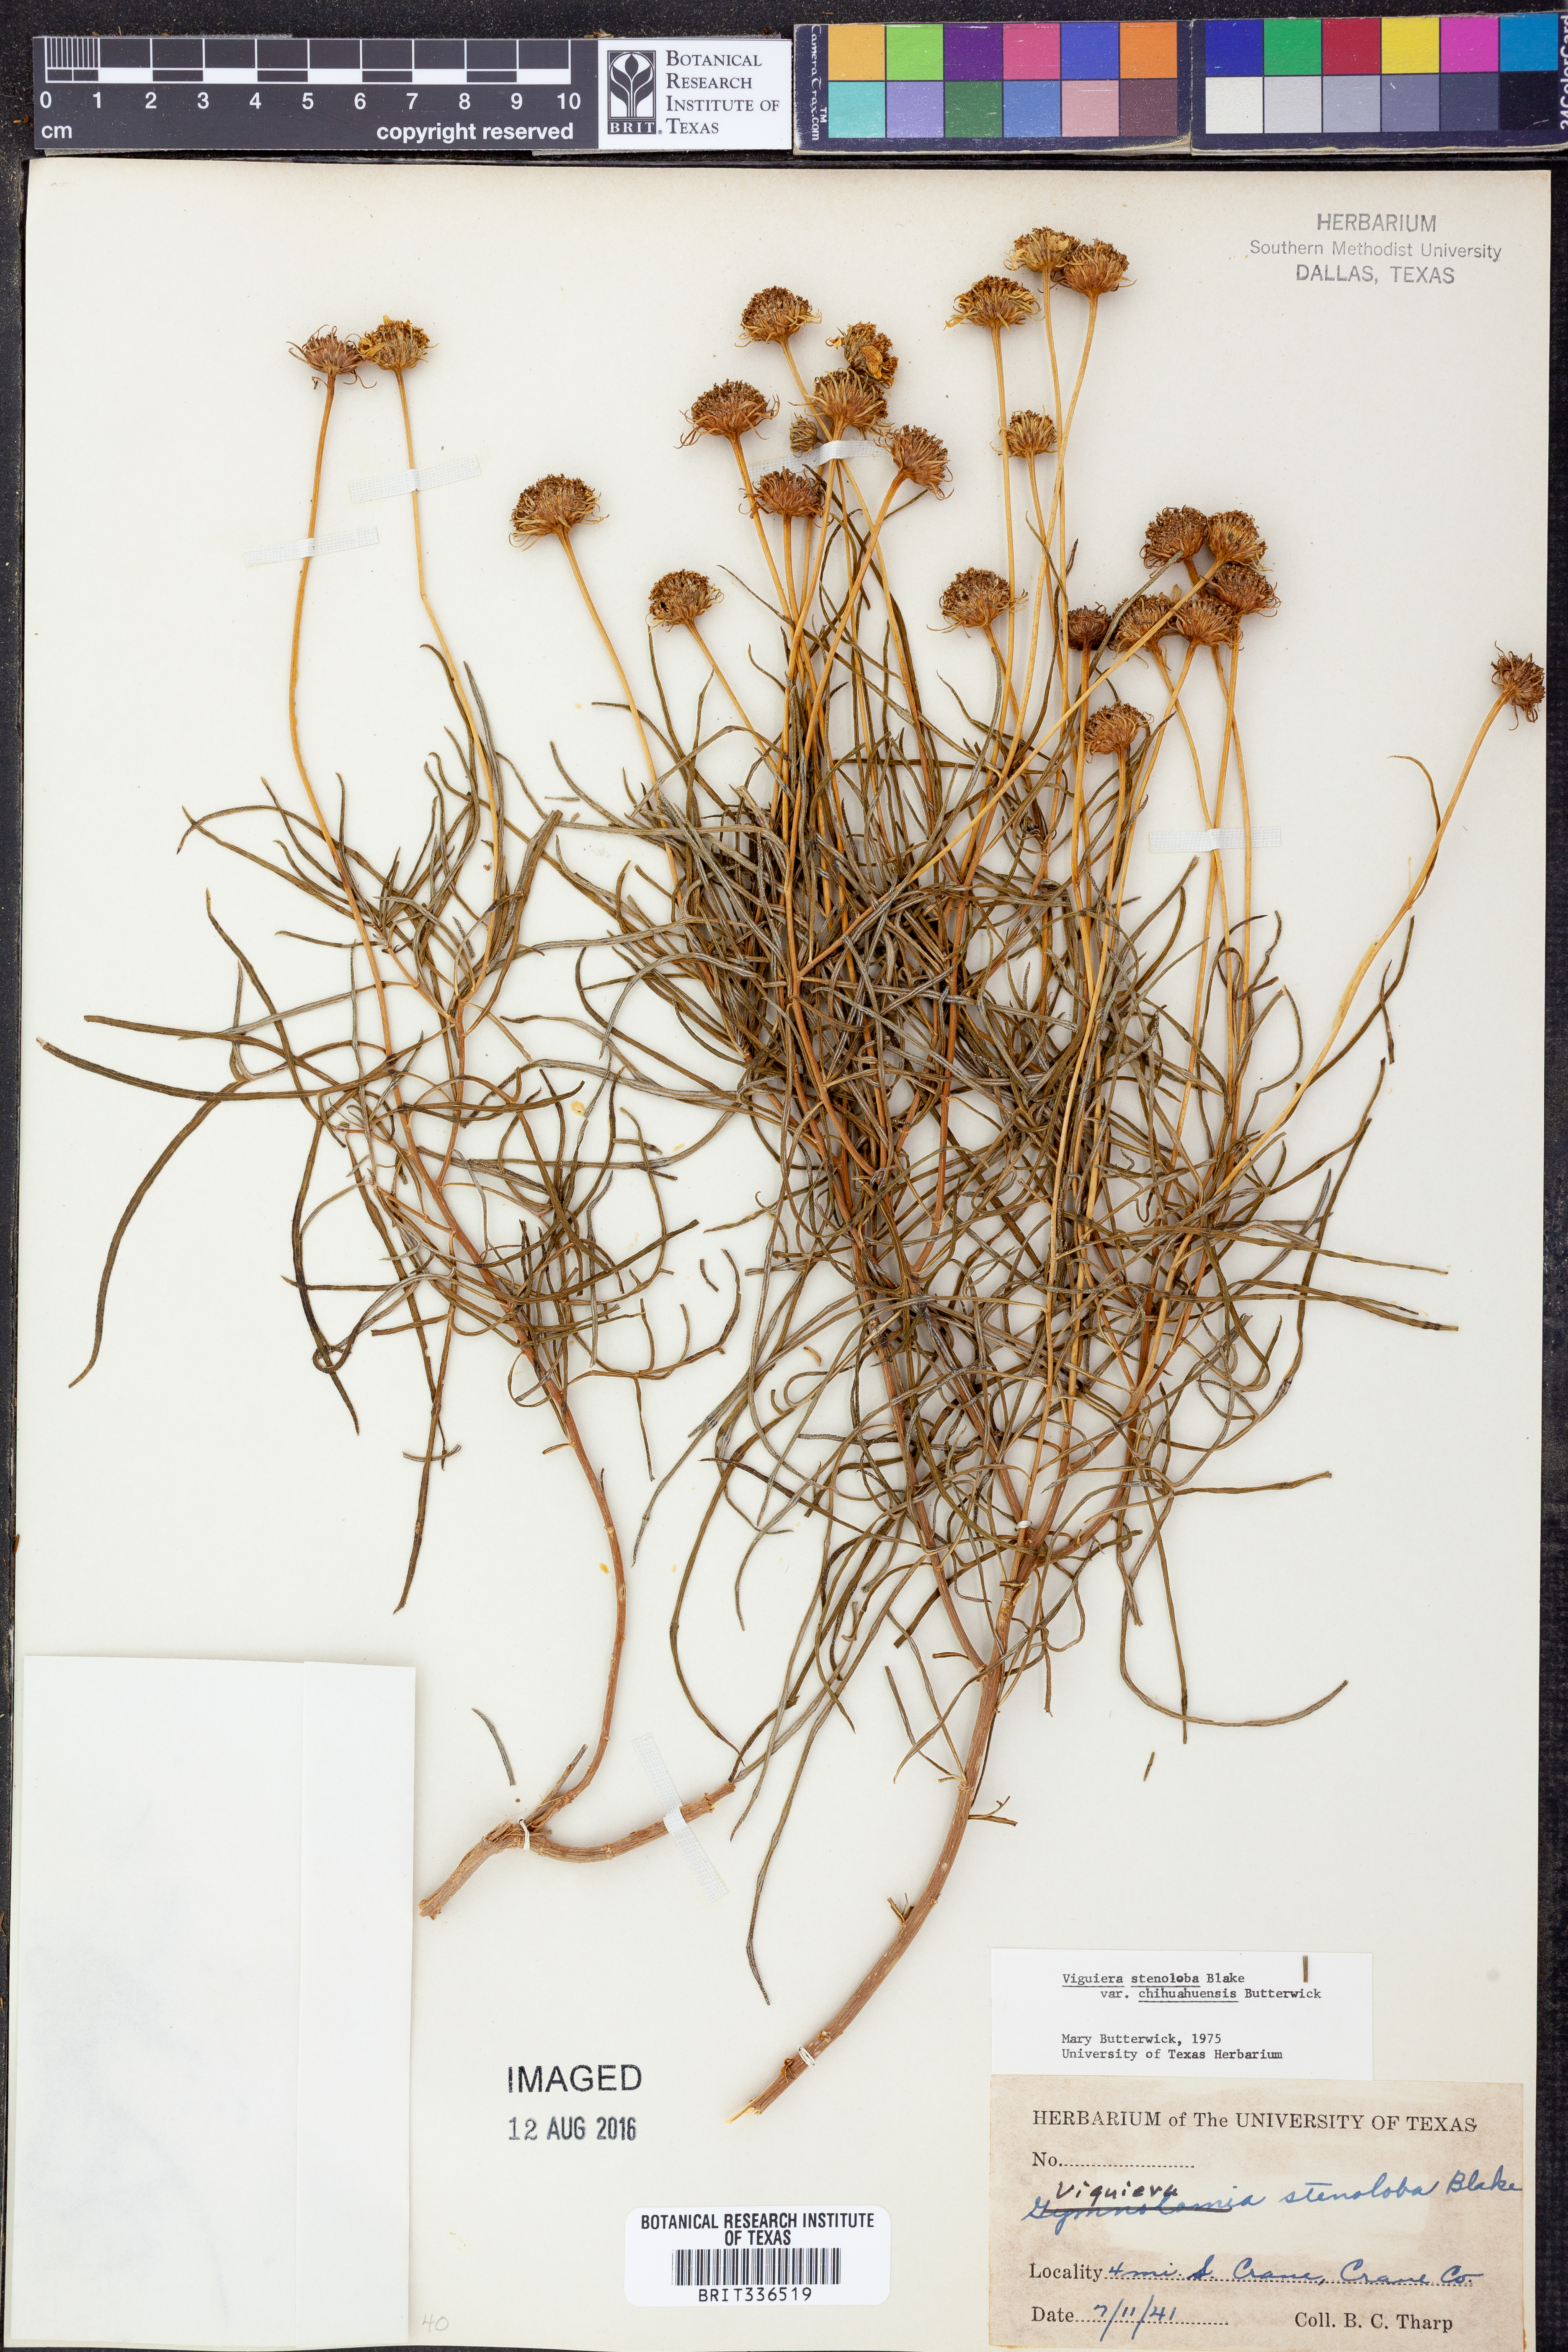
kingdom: Plantae
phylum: Tracheophyta
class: Magnoliopsida
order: Asterales
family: Asteraceae
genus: Sidneya
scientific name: Sidneya tenuifolia
